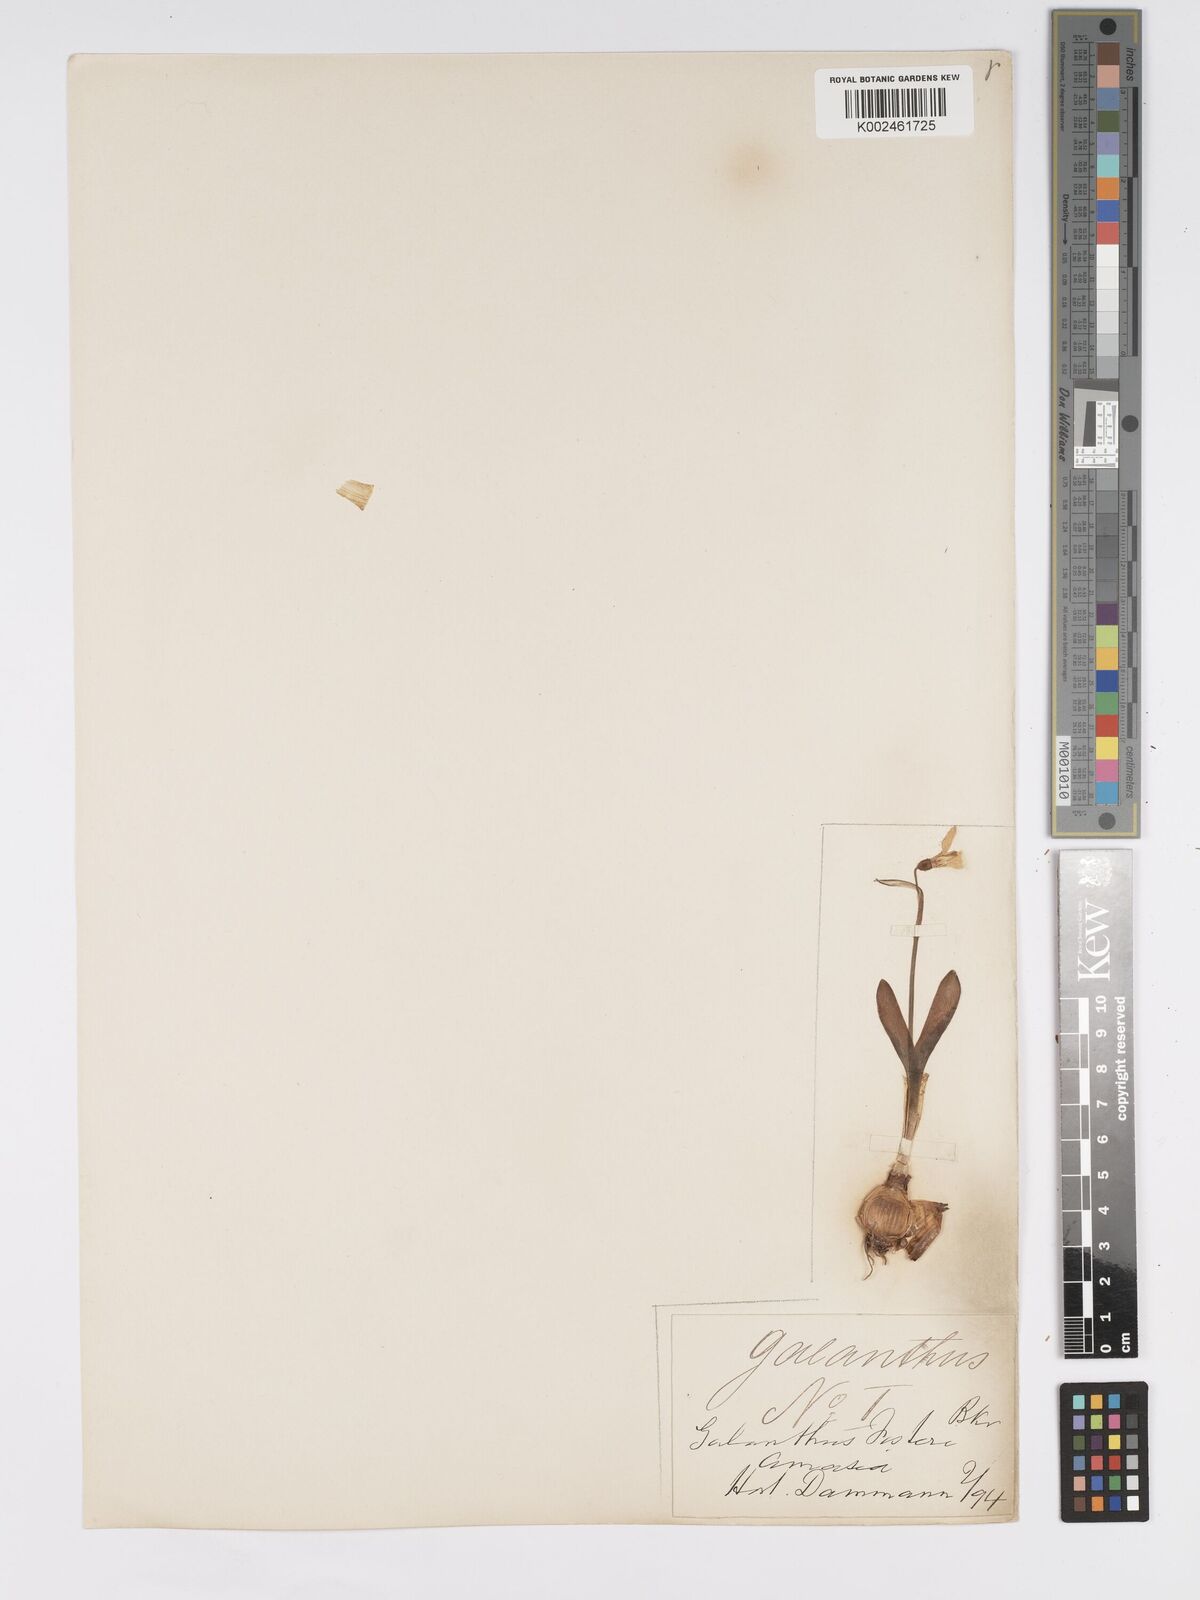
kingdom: Plantae
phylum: Tracheophyta
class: Liliopsida
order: Asparagales
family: Amaryllidaceae
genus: Galanthus
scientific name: Galanthus fosteri
